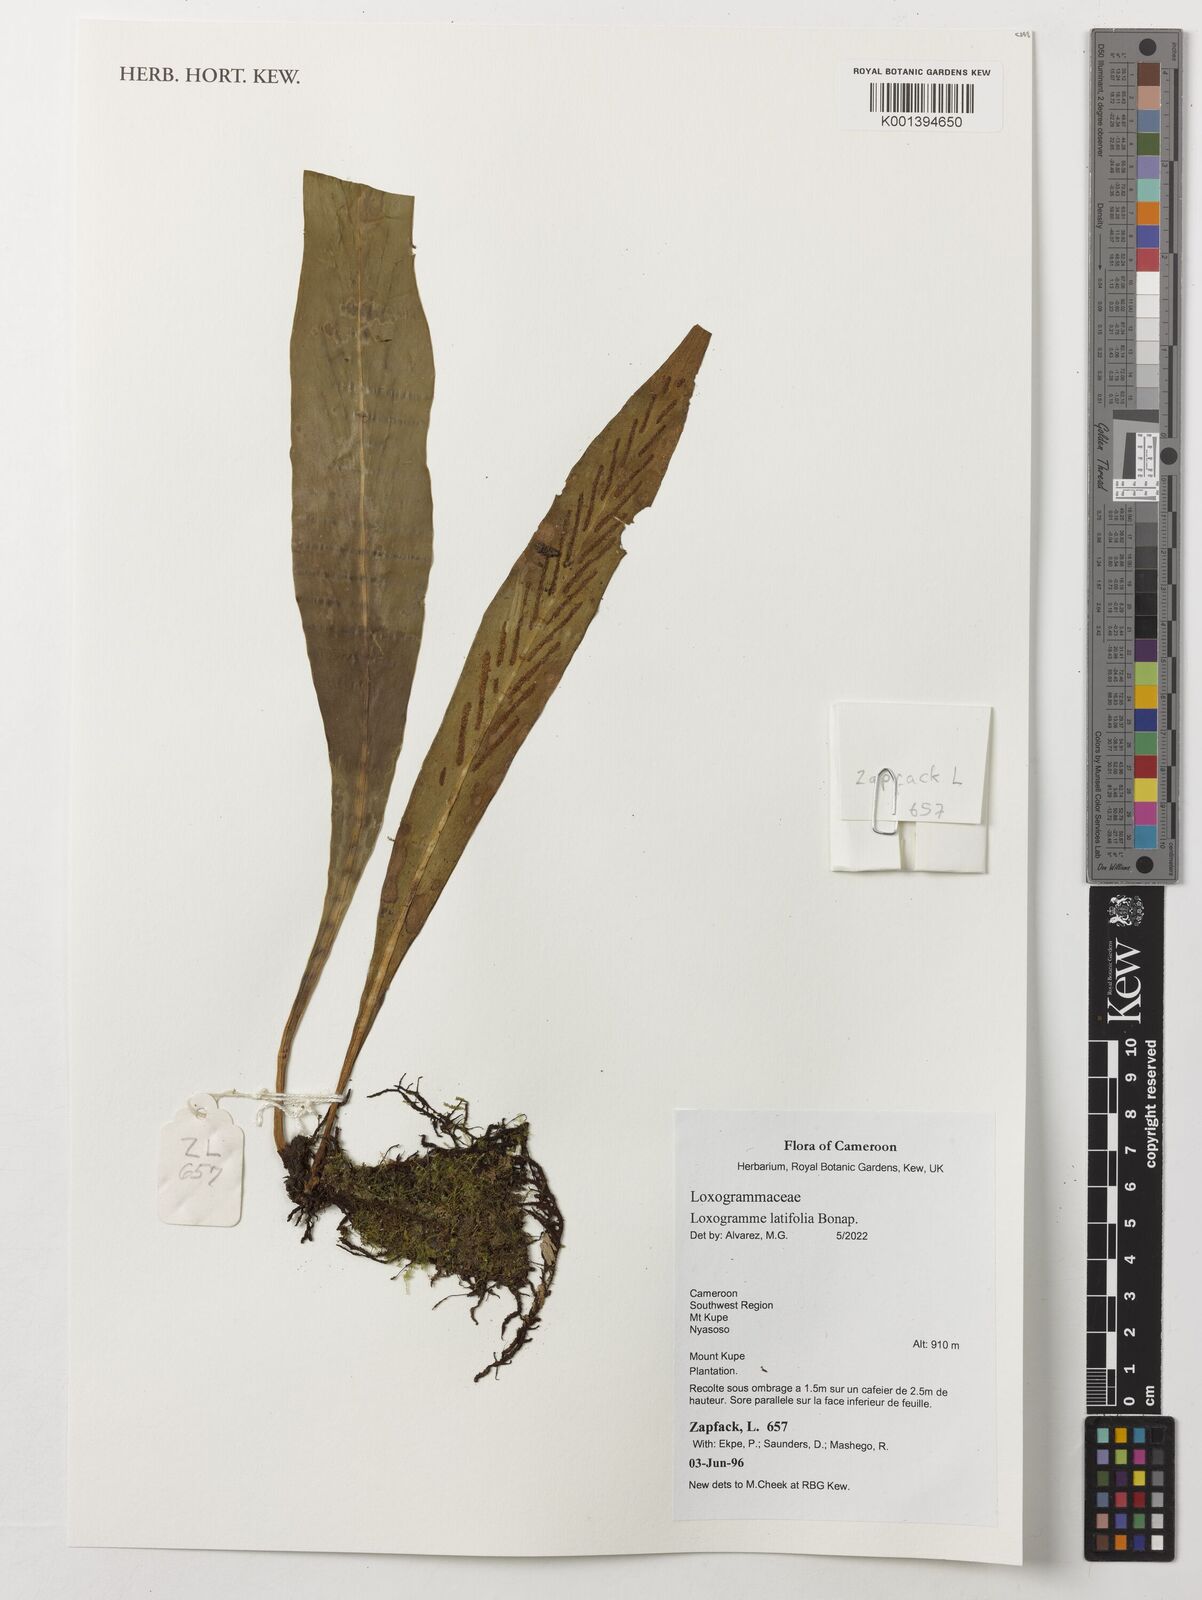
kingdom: Plantae
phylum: Tracheophyta
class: Polypodiopsida
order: Polypodiales
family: Polypodiaceae
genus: Loxogramme
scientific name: Loxogramme latifolia
